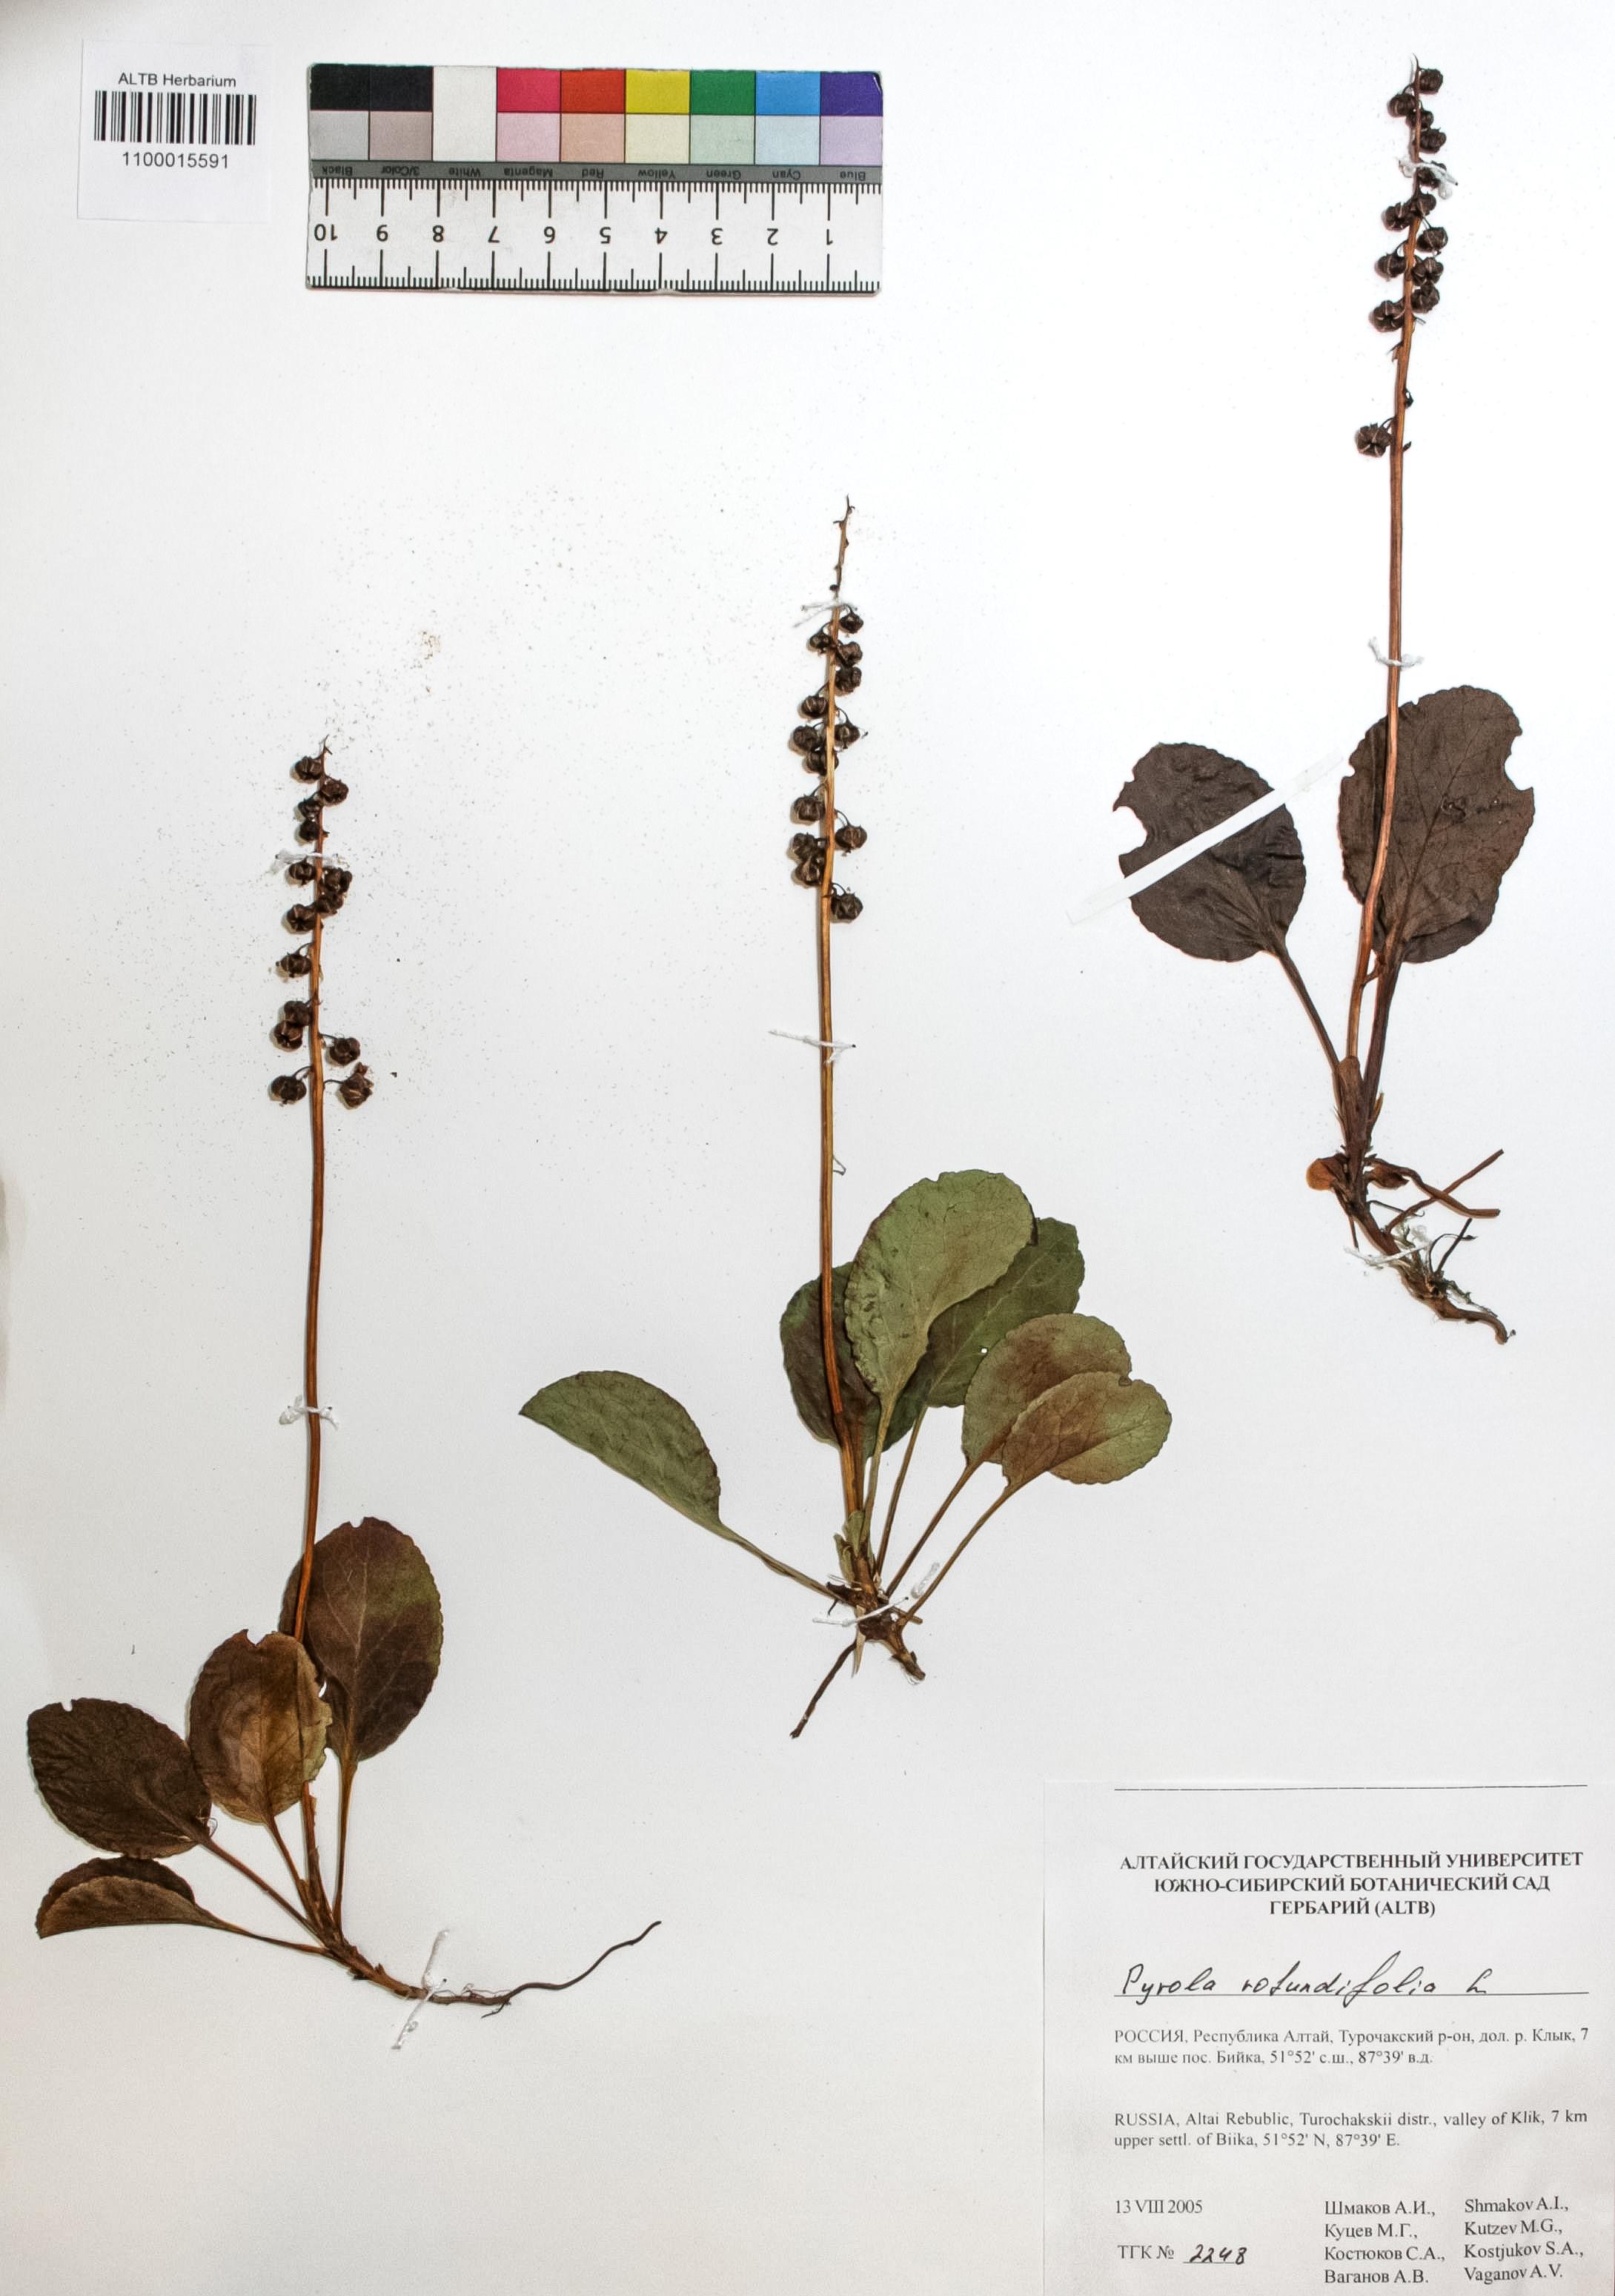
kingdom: Plantae
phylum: Tracheophyta
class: Magnoliopsida
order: Ericales
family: Ericaceae
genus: Pyrola
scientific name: Pyrola rotundifolia
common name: Round-leaved wintergreen
